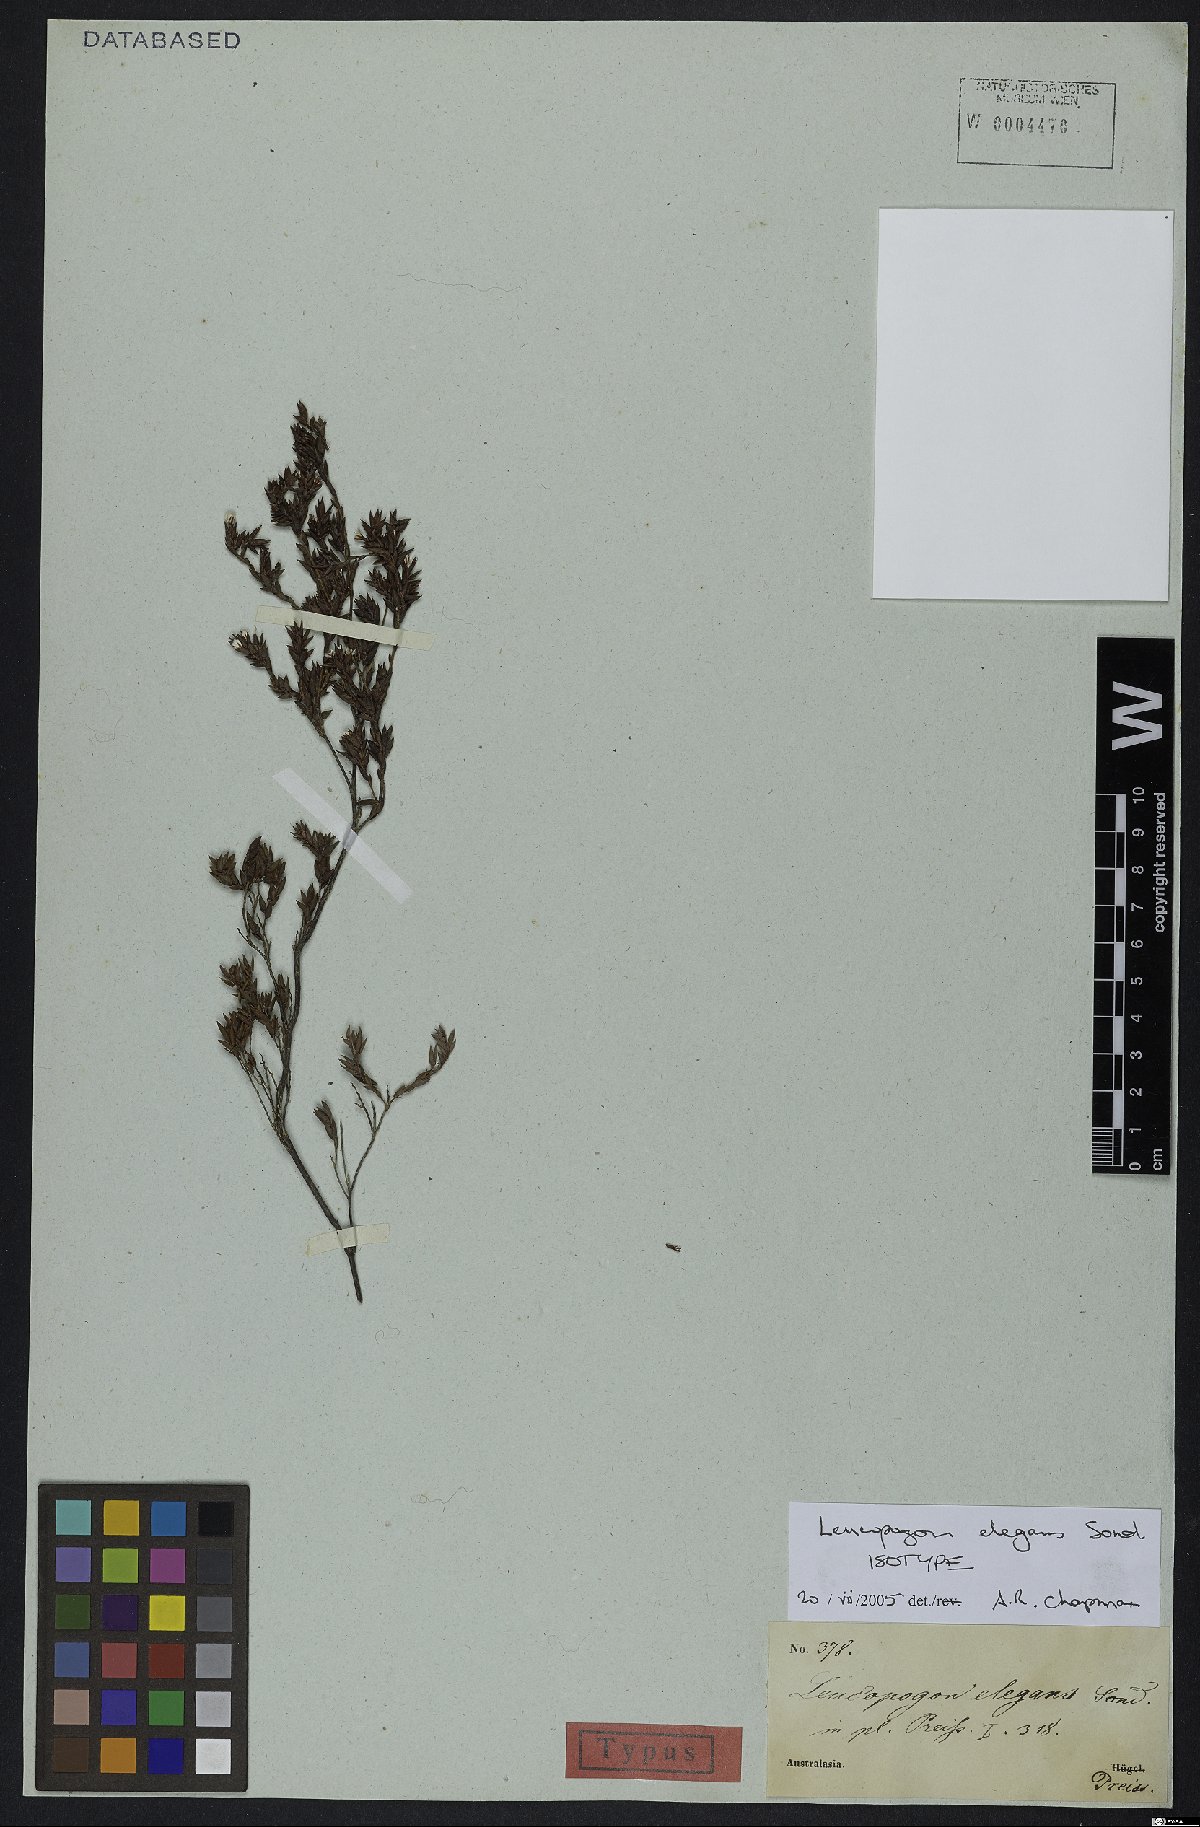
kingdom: Plantae
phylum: Tracheophyta
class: Magnoliopsida
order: Ericales
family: Ericaceae
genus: Leucopogon
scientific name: Leucopogon elegans
